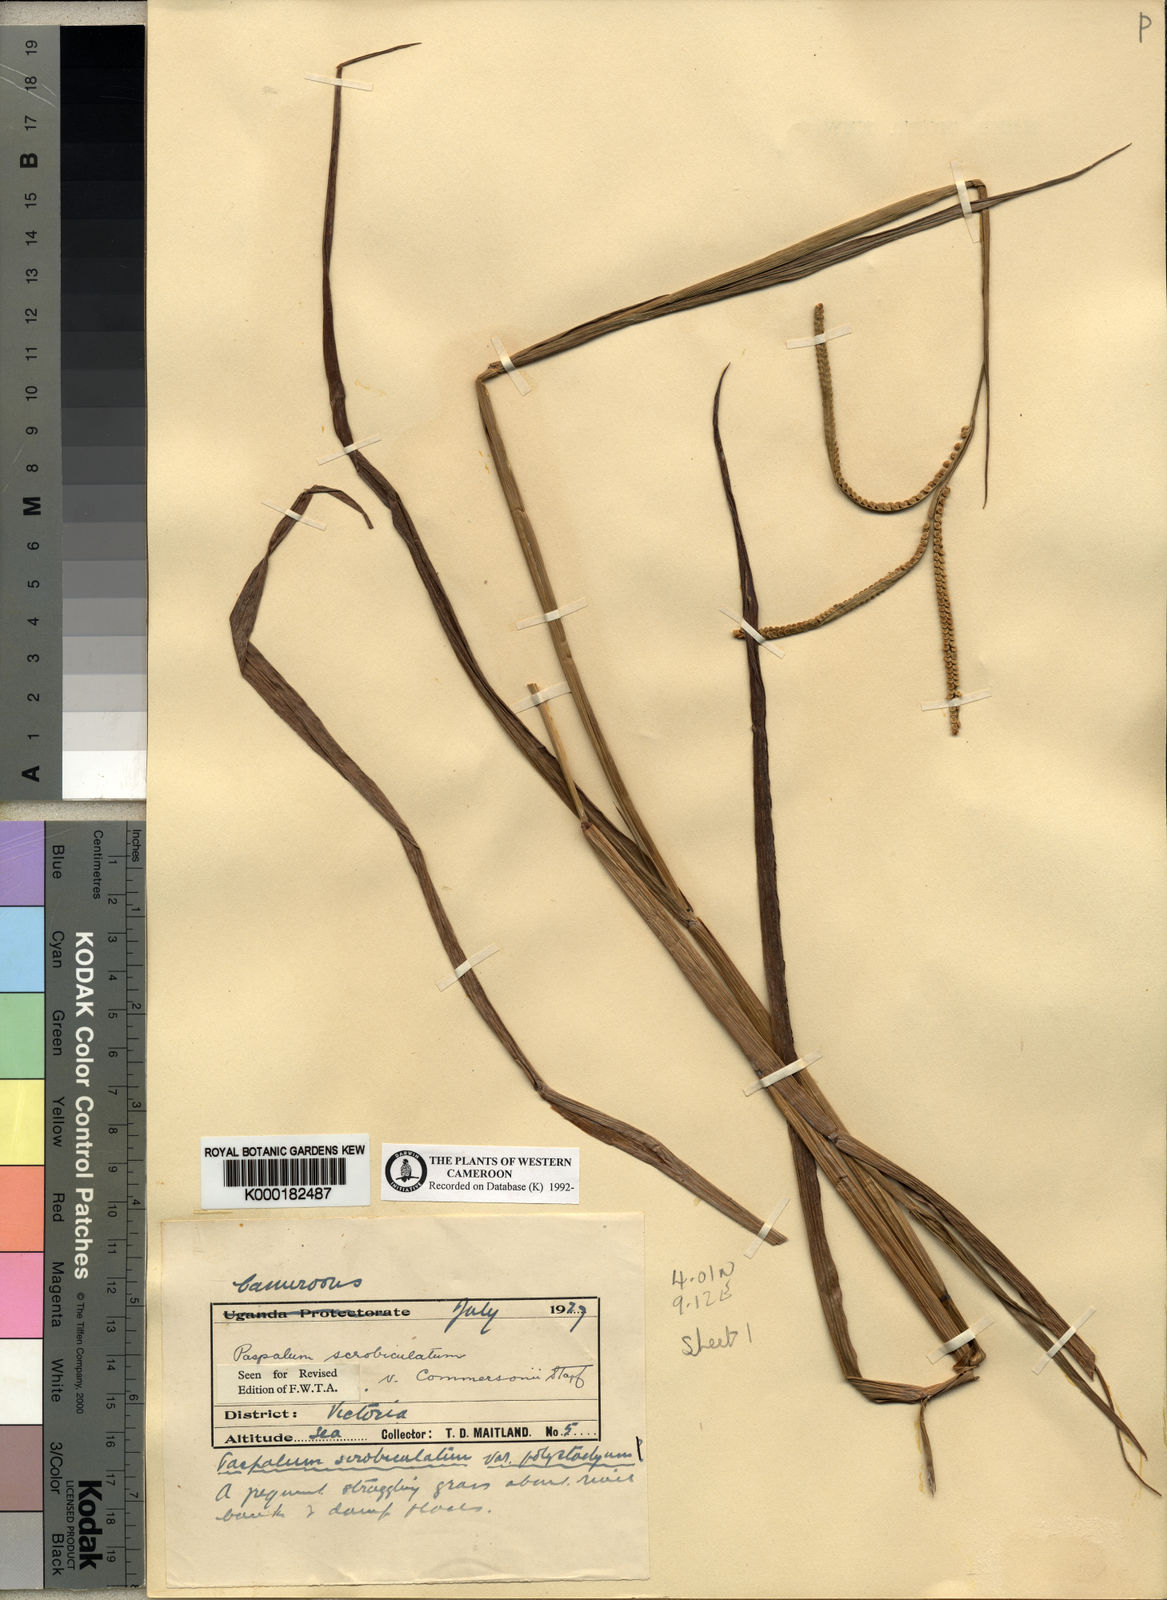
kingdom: Plantae
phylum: Tracheophyta
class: Liliopsida
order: Poales
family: Poaceae
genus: Paspalum
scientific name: Paspalum scrobiculatum
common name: Kodo millet
